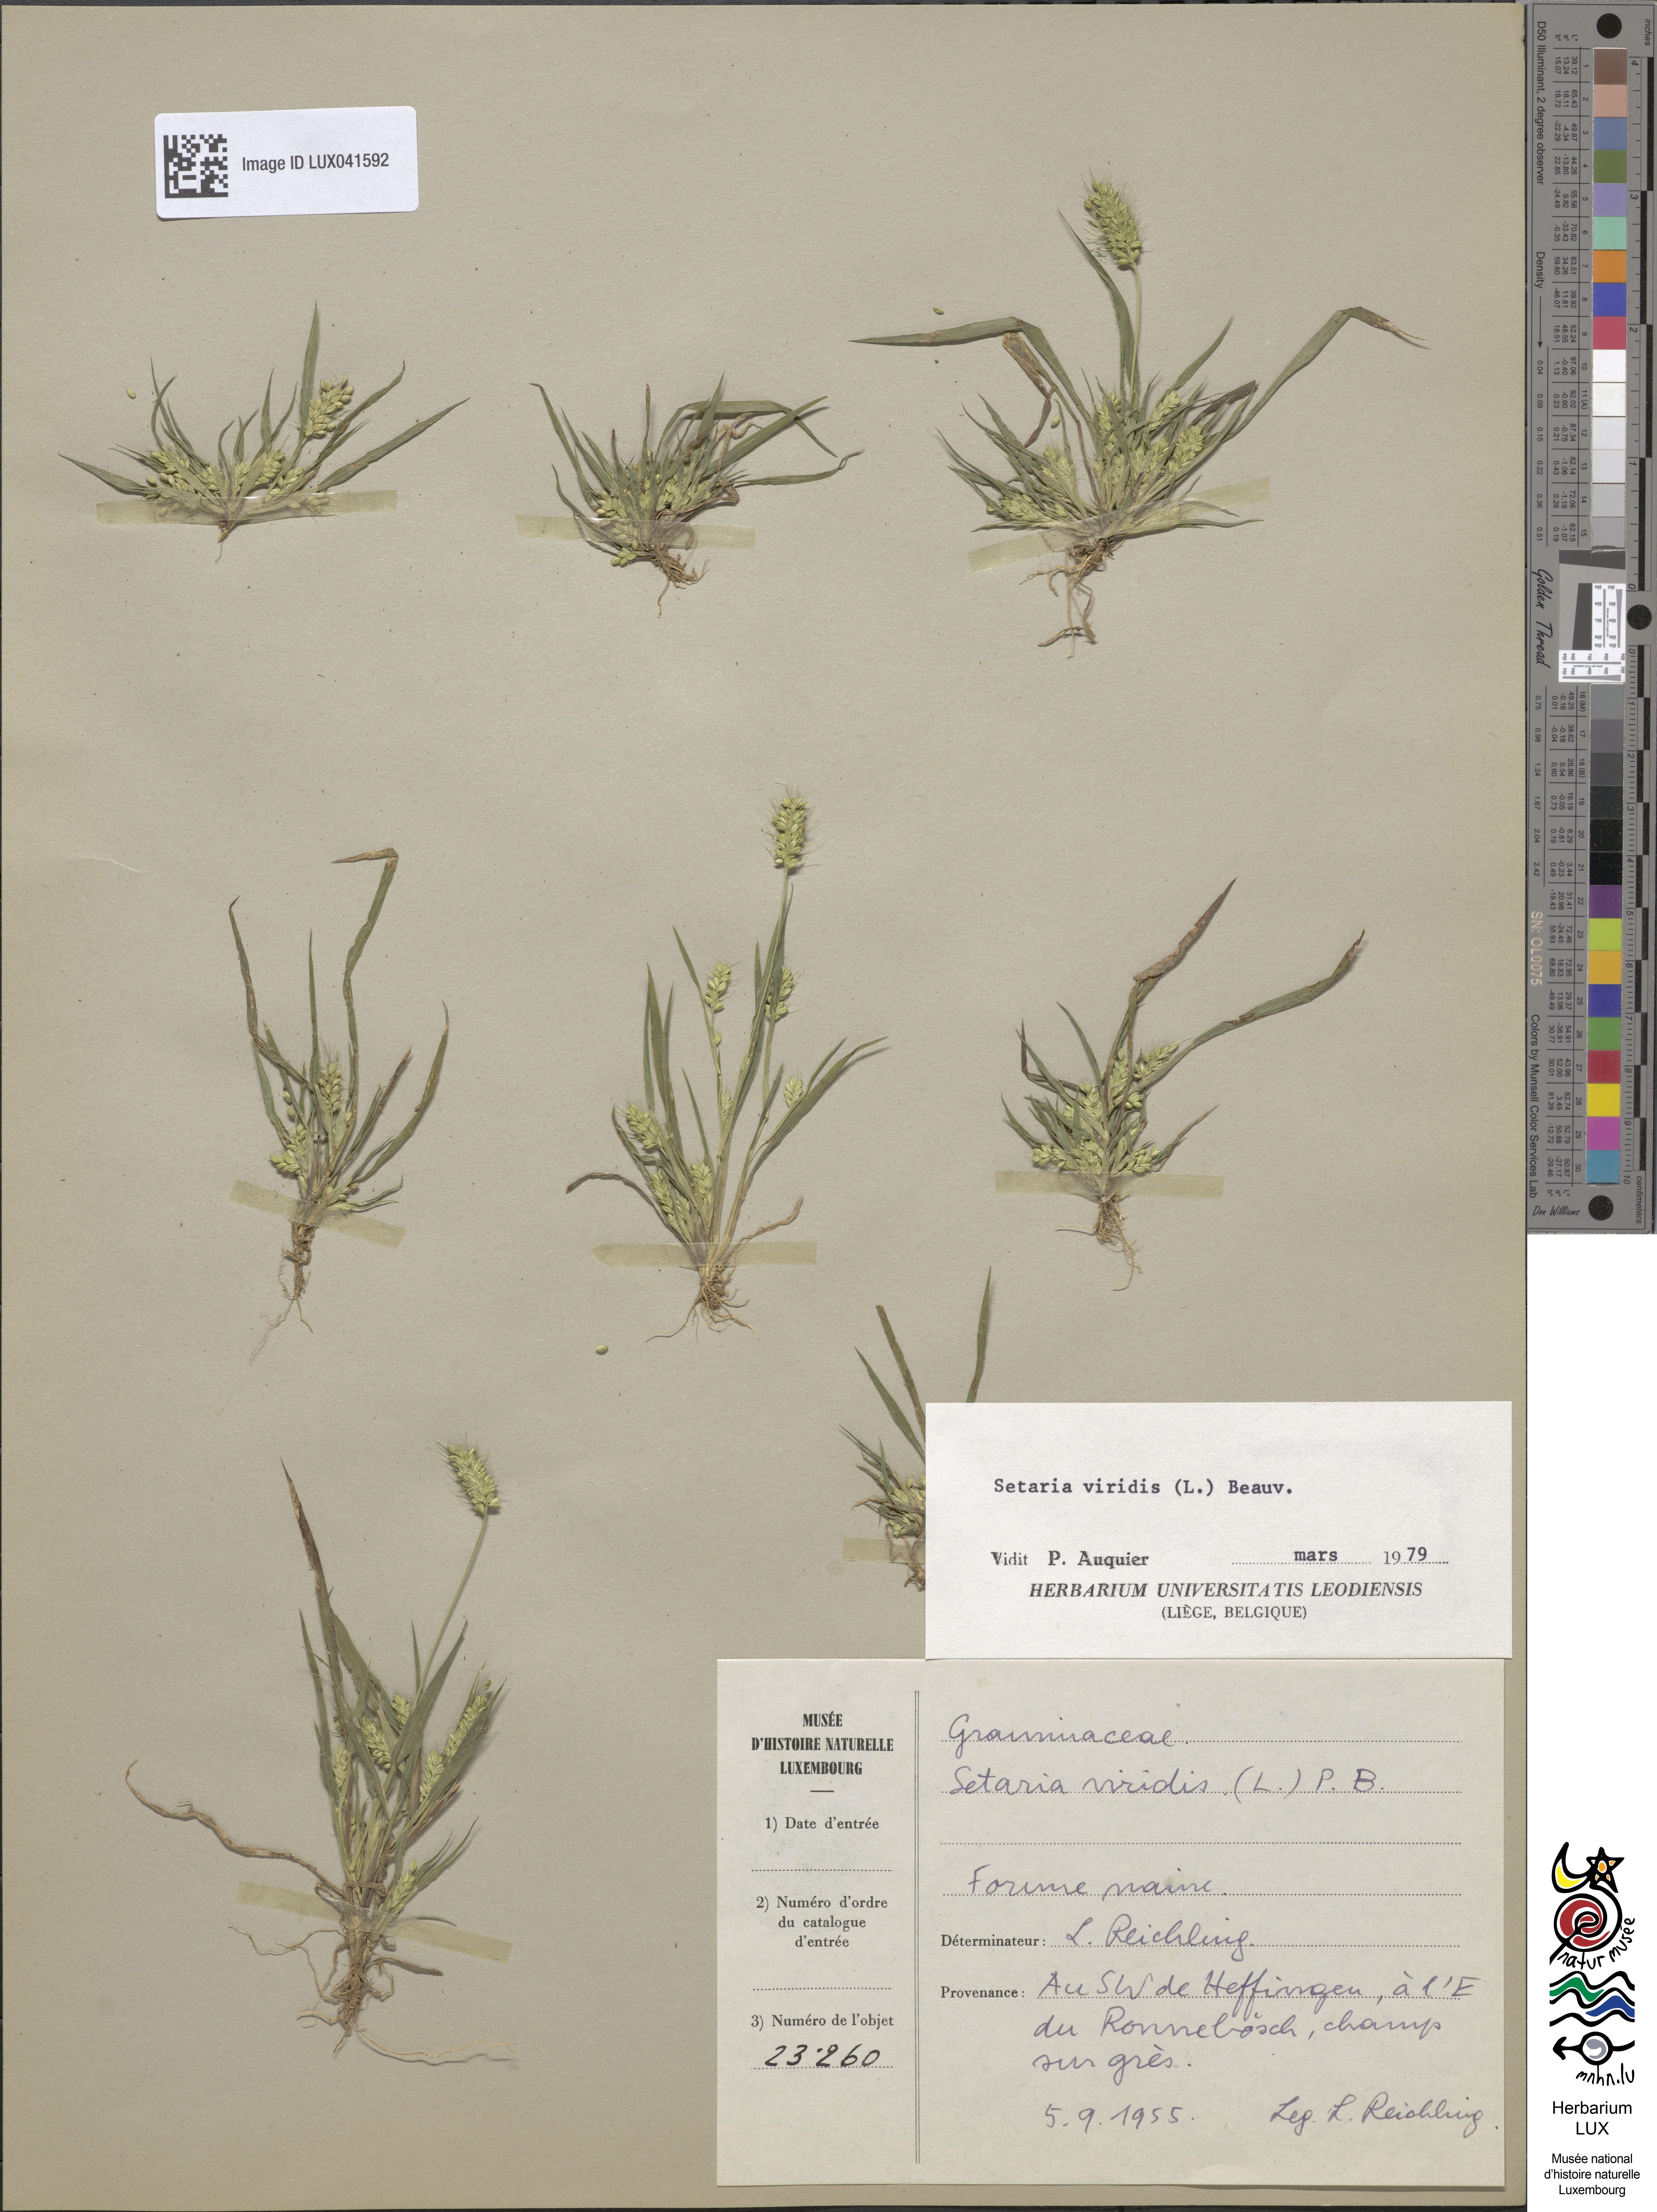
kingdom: Plantae
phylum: Tracheophyta
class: Liliopsida
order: Poales
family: Poaceae
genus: Setaria
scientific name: Setaria viridis
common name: Green bristlegrass
